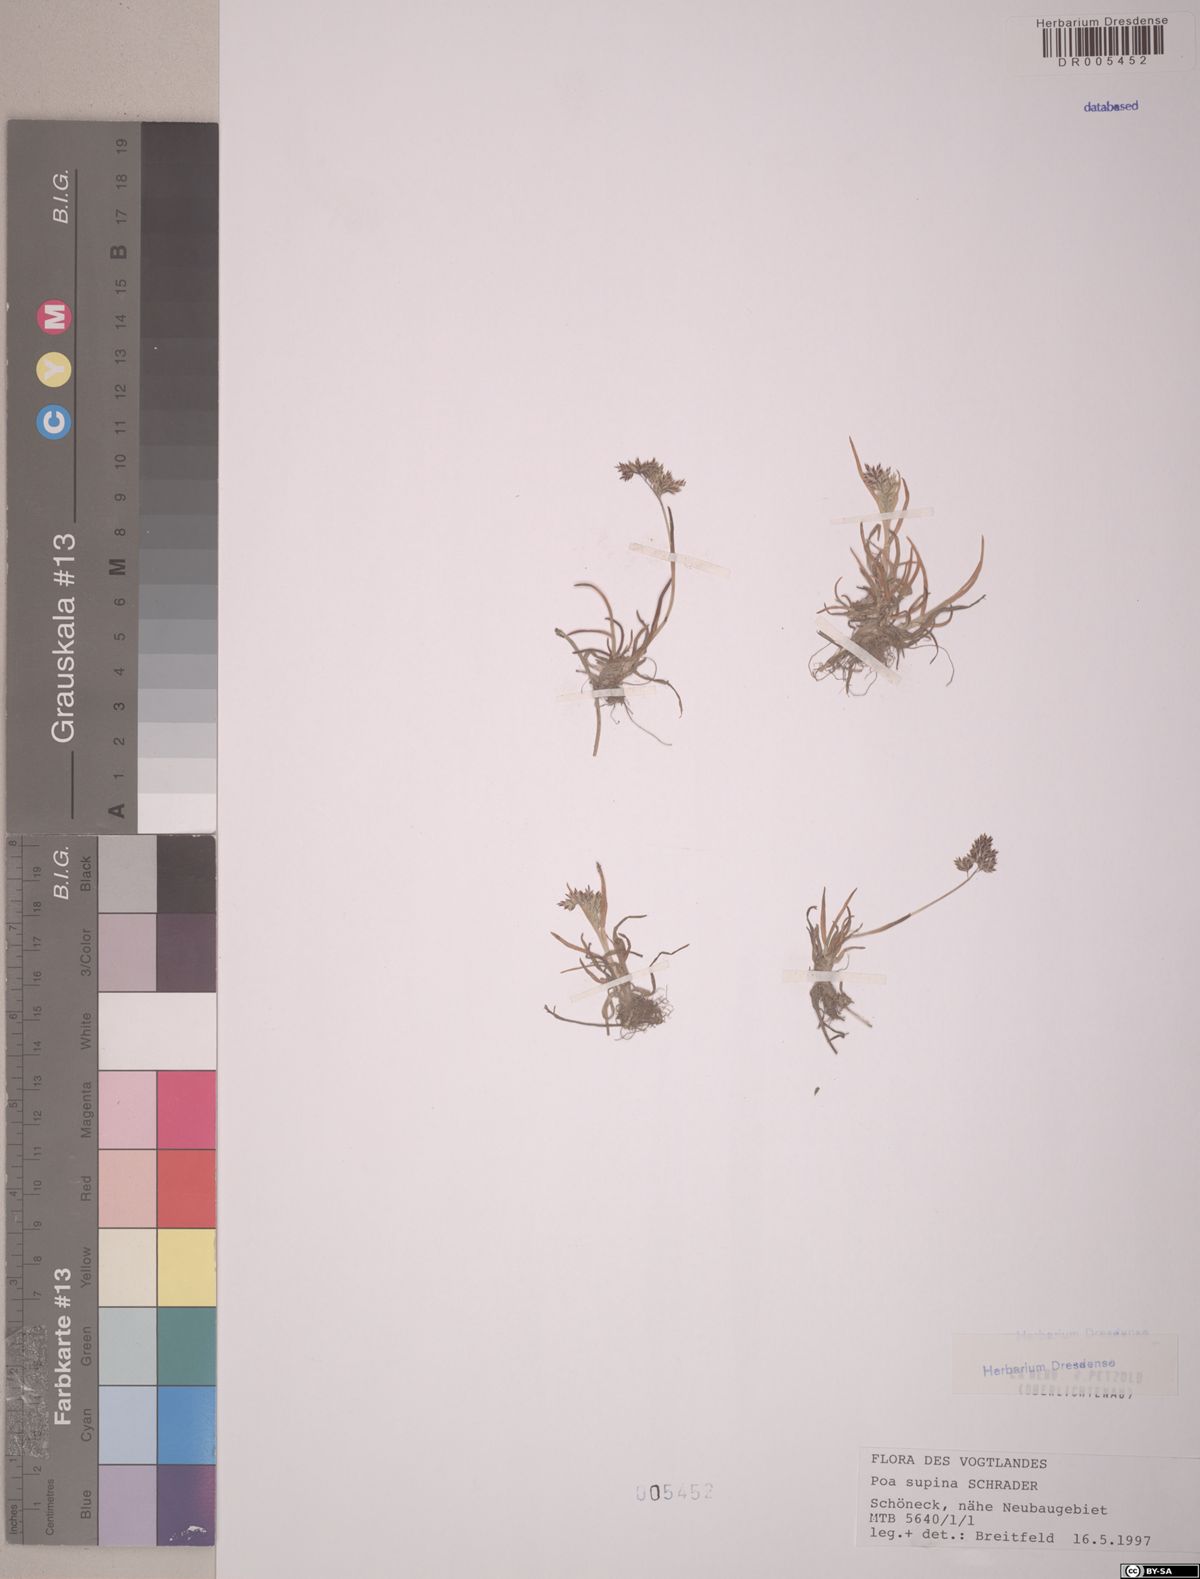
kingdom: Plantae
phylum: Tracheophyta
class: Liliopsida
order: Poales
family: Poaceae
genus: Poa
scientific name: Poa supina
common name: Supina bluegrass
